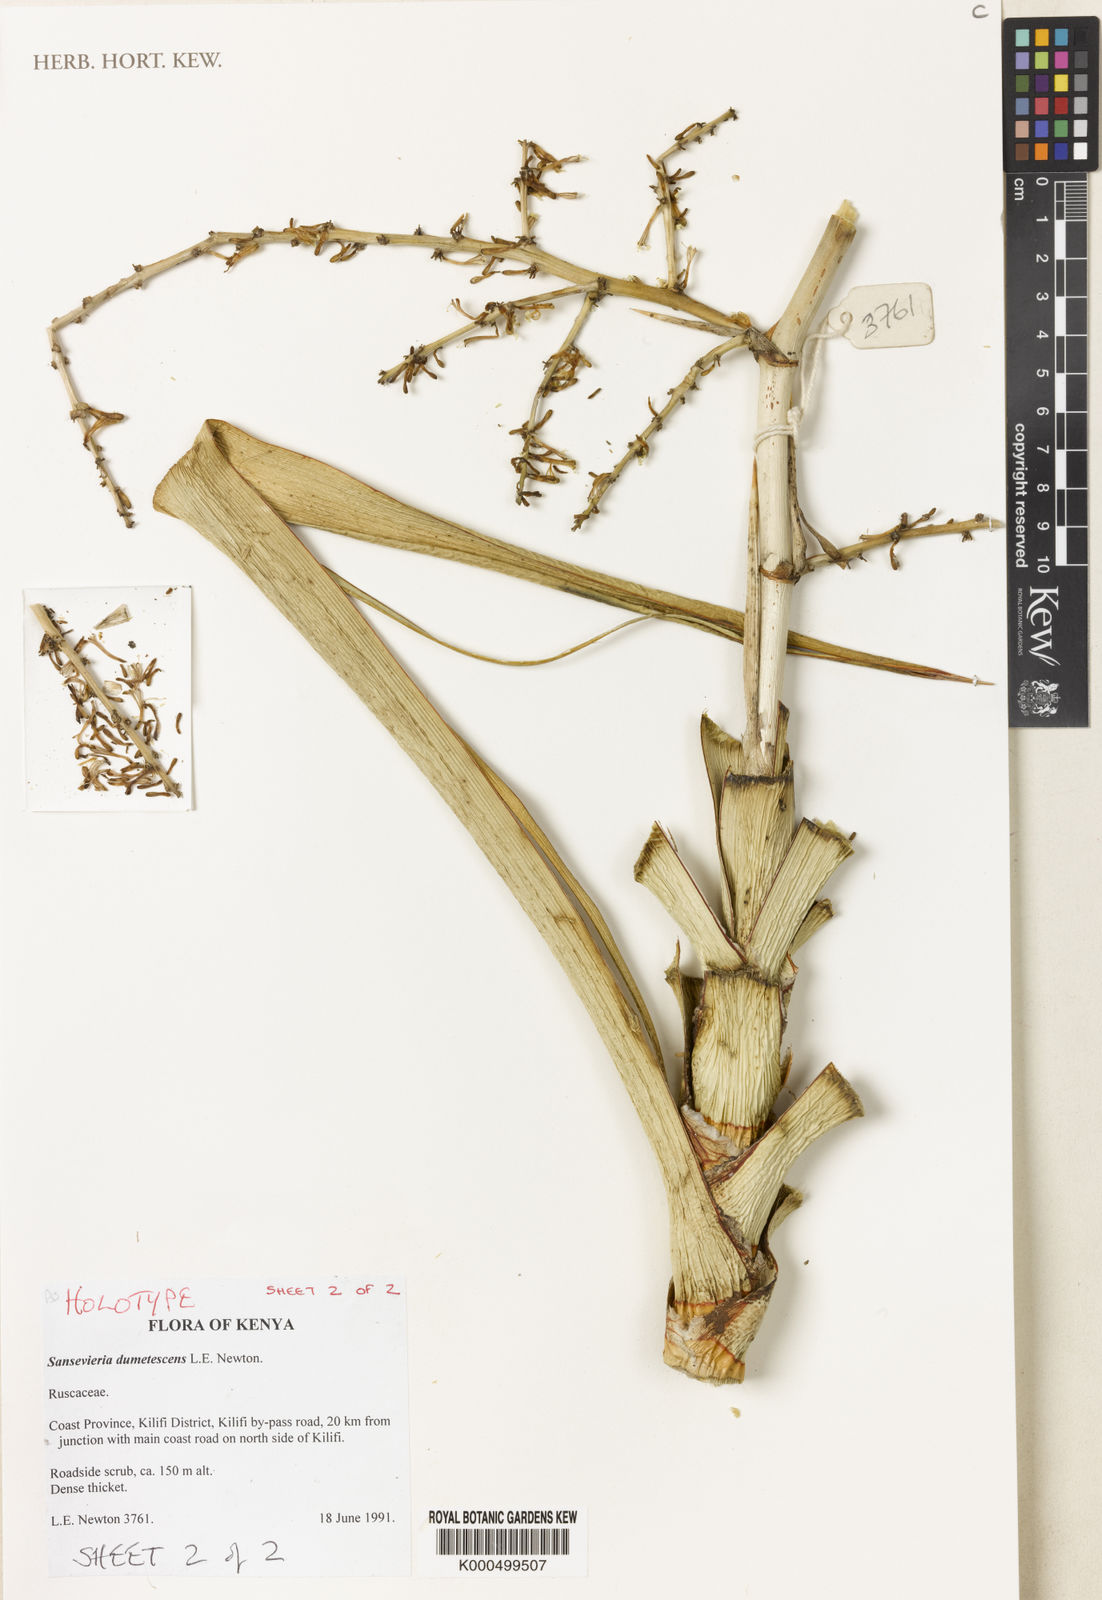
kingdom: Plantae
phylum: Tracheophyta
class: Liliopsida
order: Asparagales
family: Asparagaceae
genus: Dracaena
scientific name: Dracaena dumetescens
